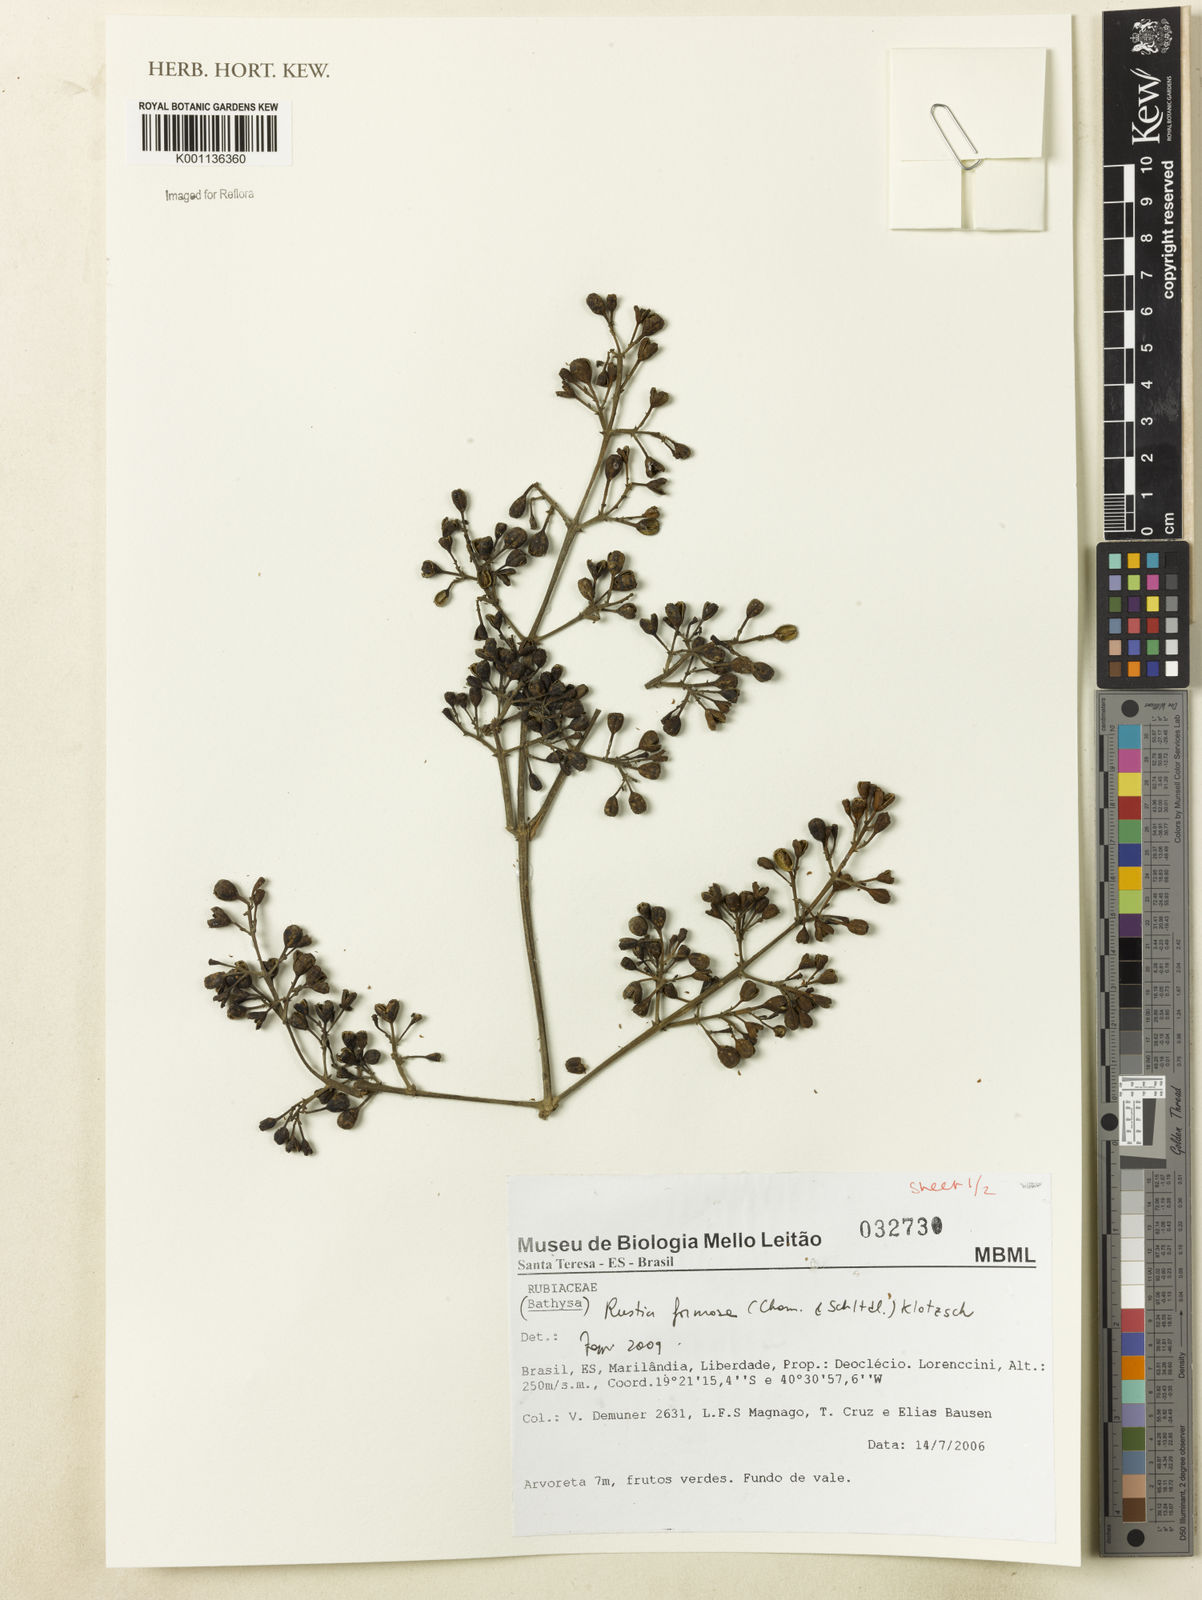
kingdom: Plantae
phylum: Tracheophyta
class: Magnoliopsida
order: Gentianales
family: Rubiaceae
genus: Rustia
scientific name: Rustia formosa
